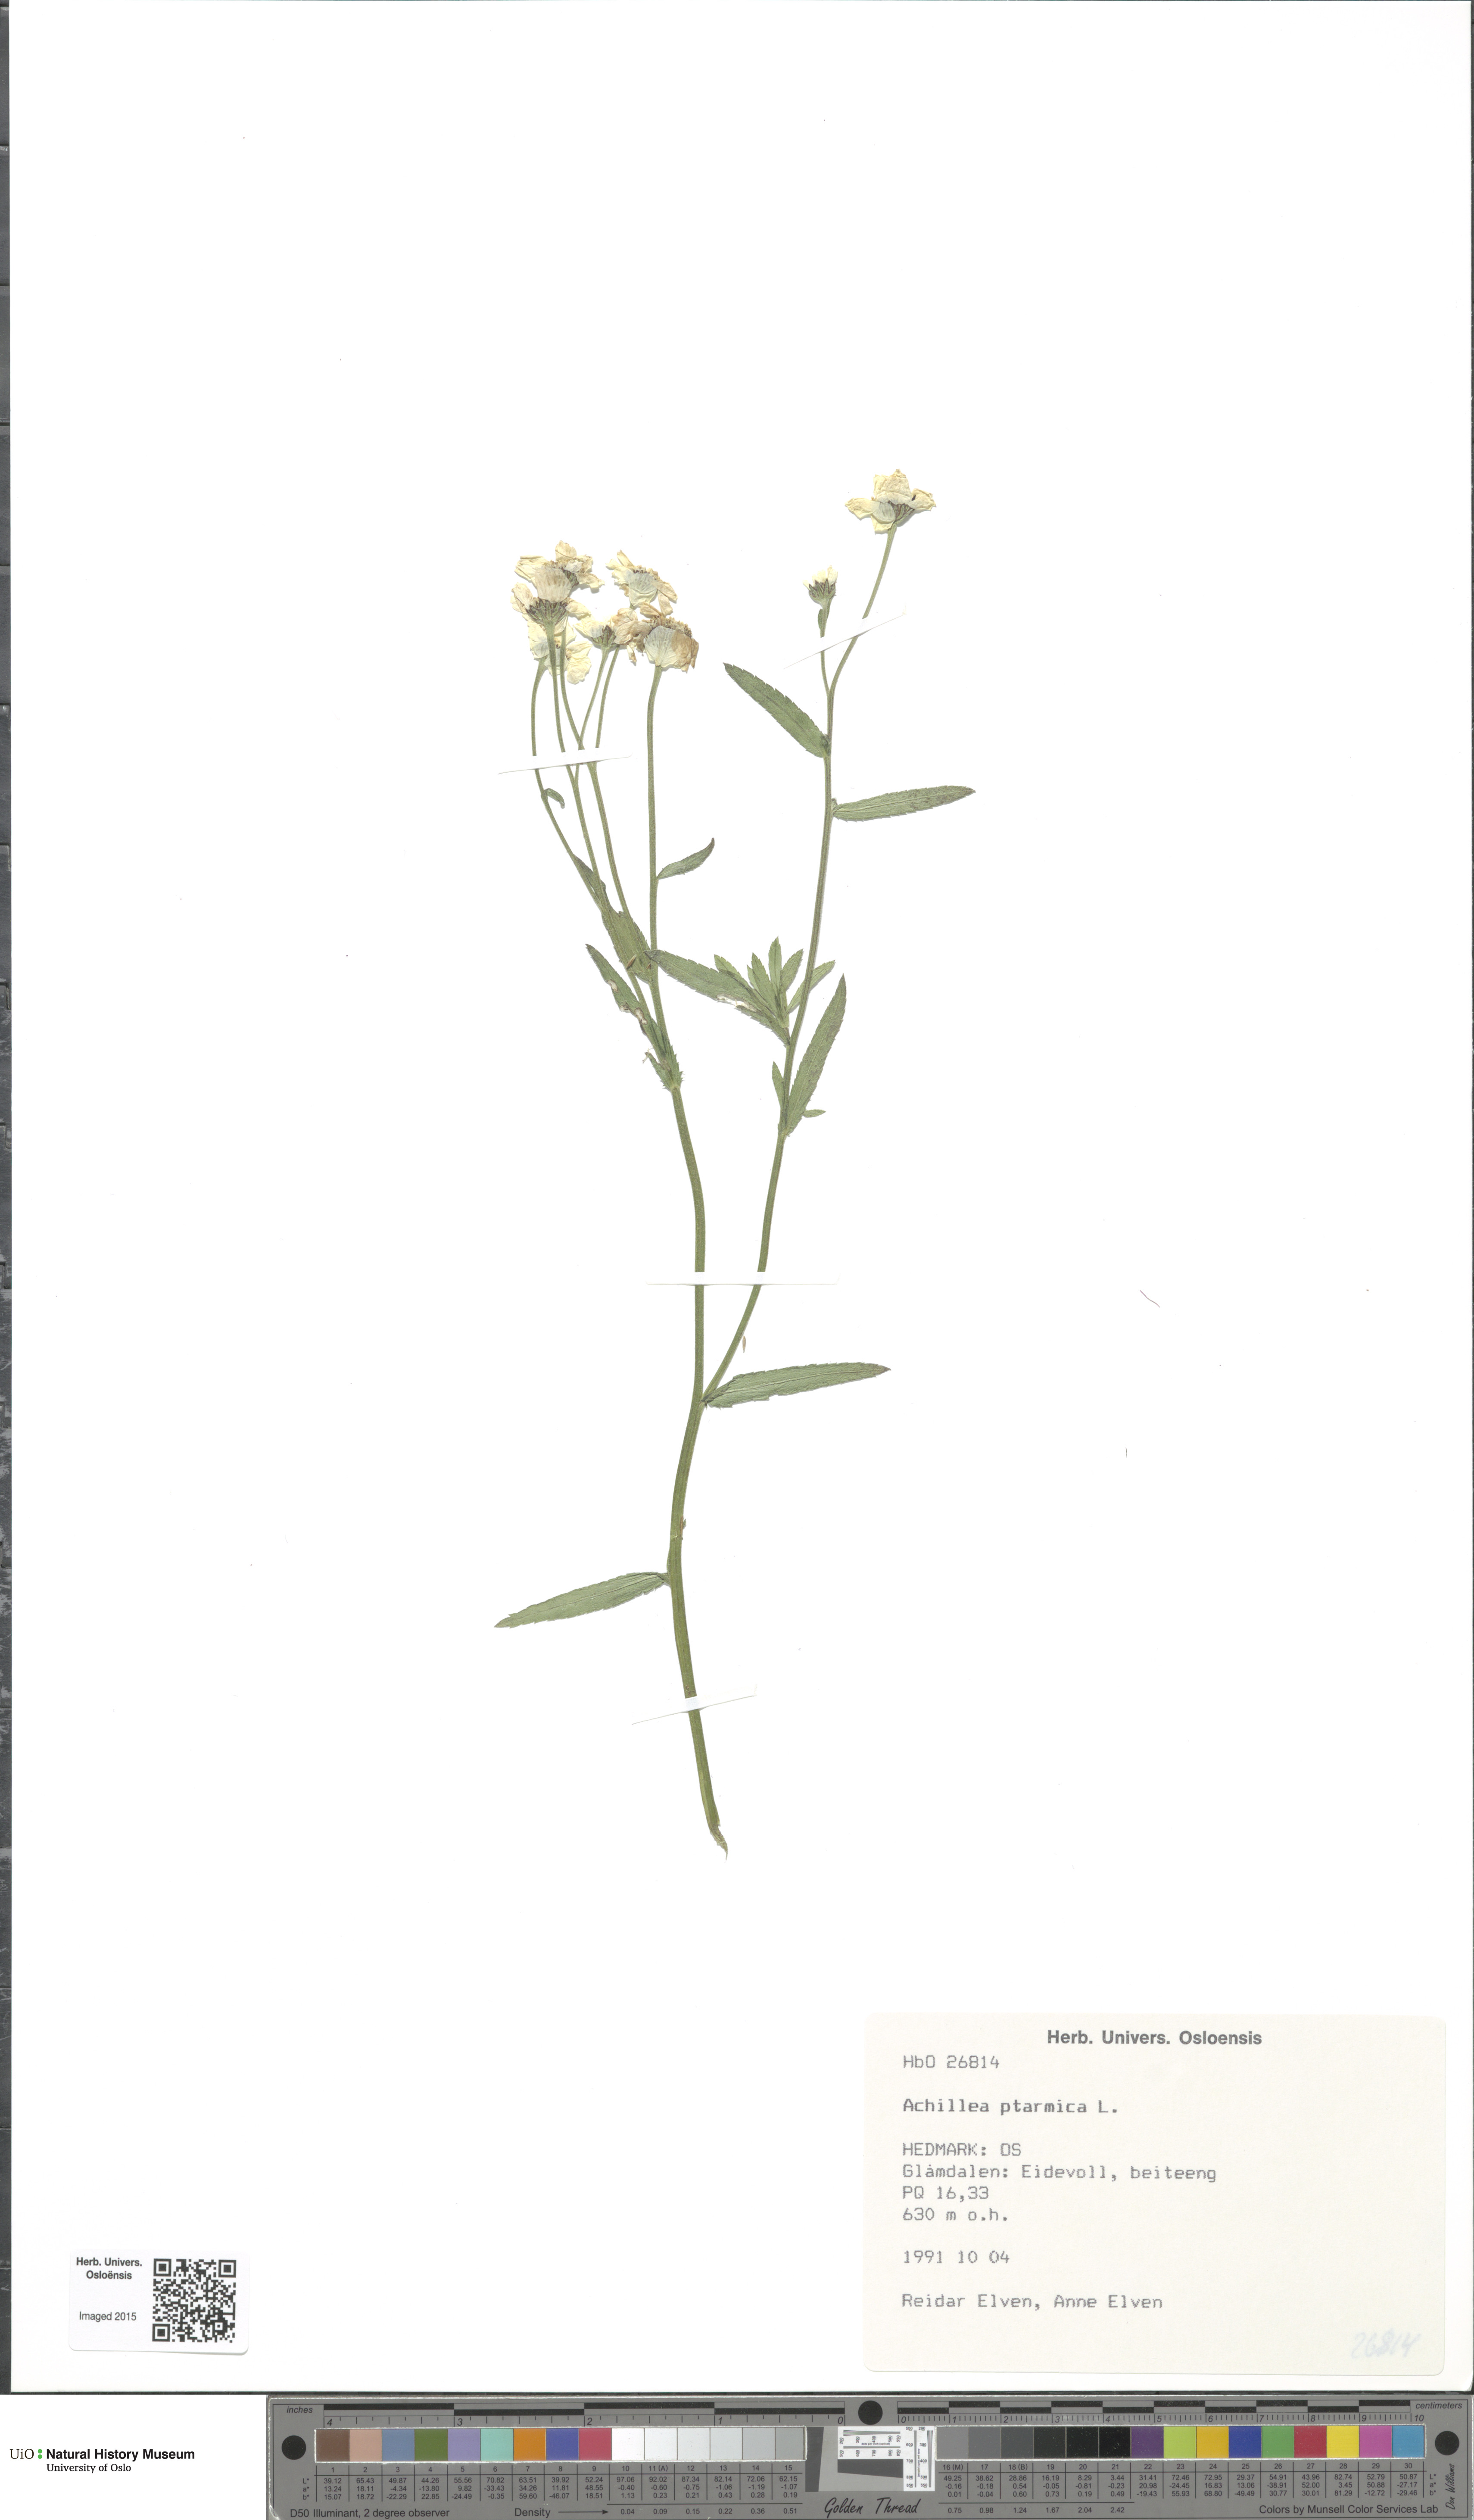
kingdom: Plantae
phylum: Tracheophyta
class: Magnoliopsida
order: Asterales
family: Asteraceae
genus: Achillea
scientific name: Achillea ptarmica
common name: Sneezeweed
